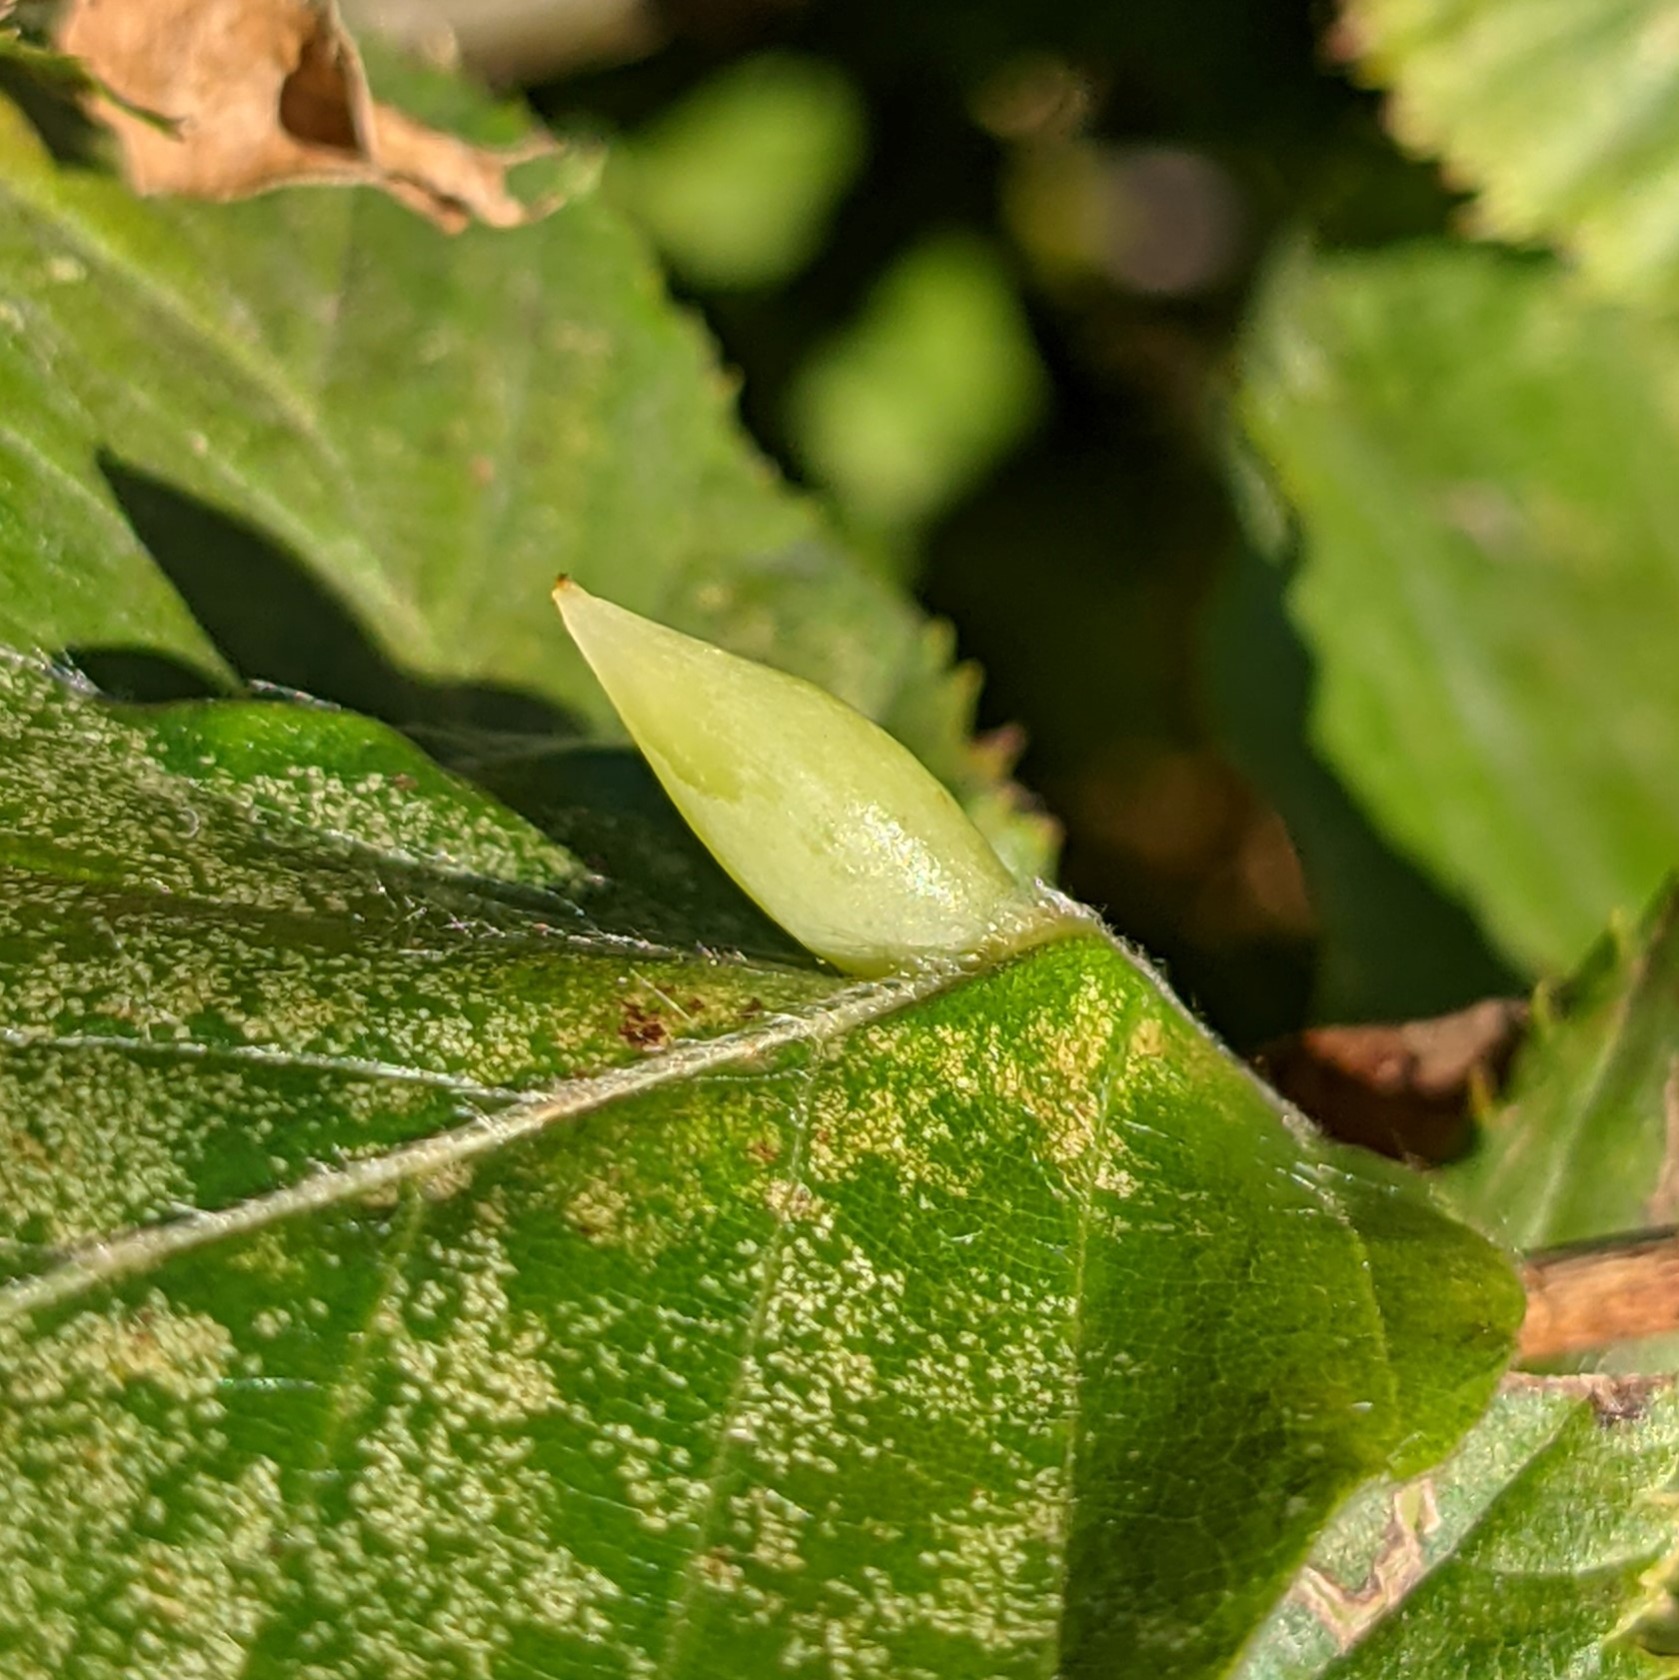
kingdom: Animalia
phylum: Arthropoda
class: Insecta
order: Diptera
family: Cecidomyiidae
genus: Mikiola
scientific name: Mikiola fagi
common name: Bøgegalmyg
